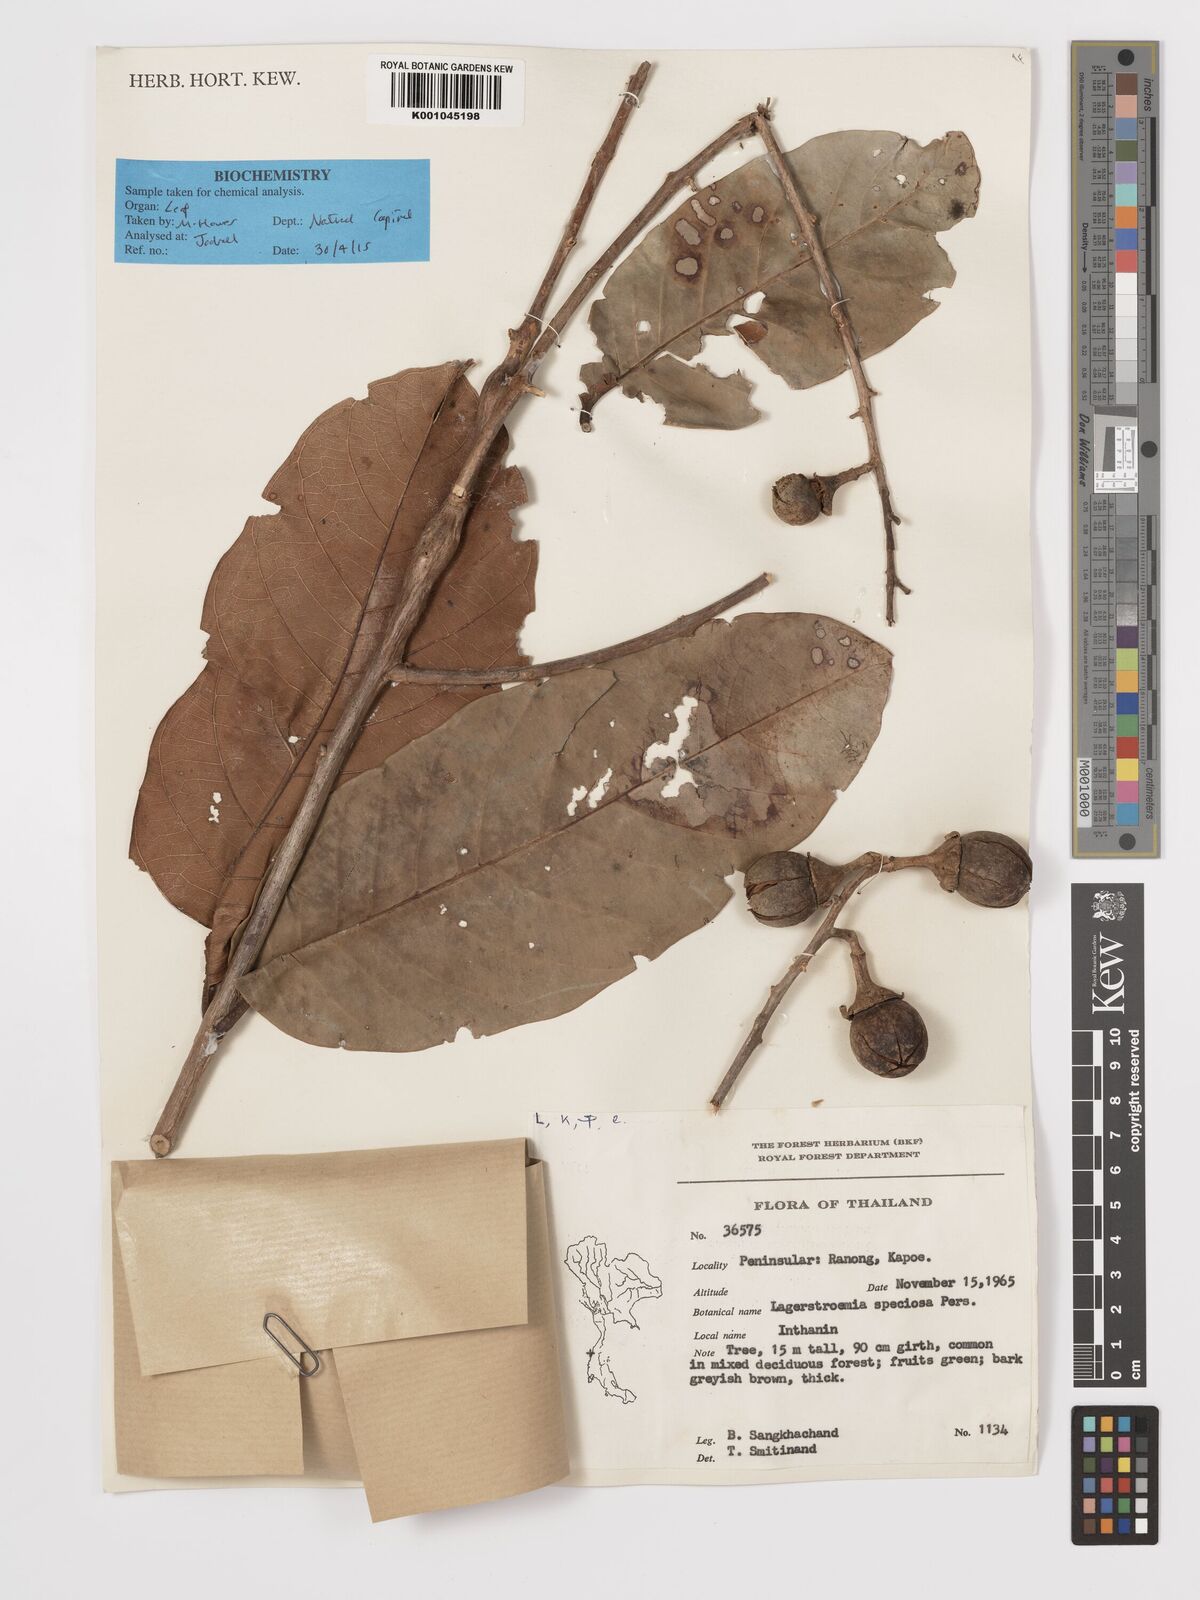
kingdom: Plantae
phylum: Tracheophyta
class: Magnoliopsida
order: Myrtales
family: Lythraceae
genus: Lagerstroemia
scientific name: Lagerstroemia speciosa
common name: Queen's crape-myrtle
